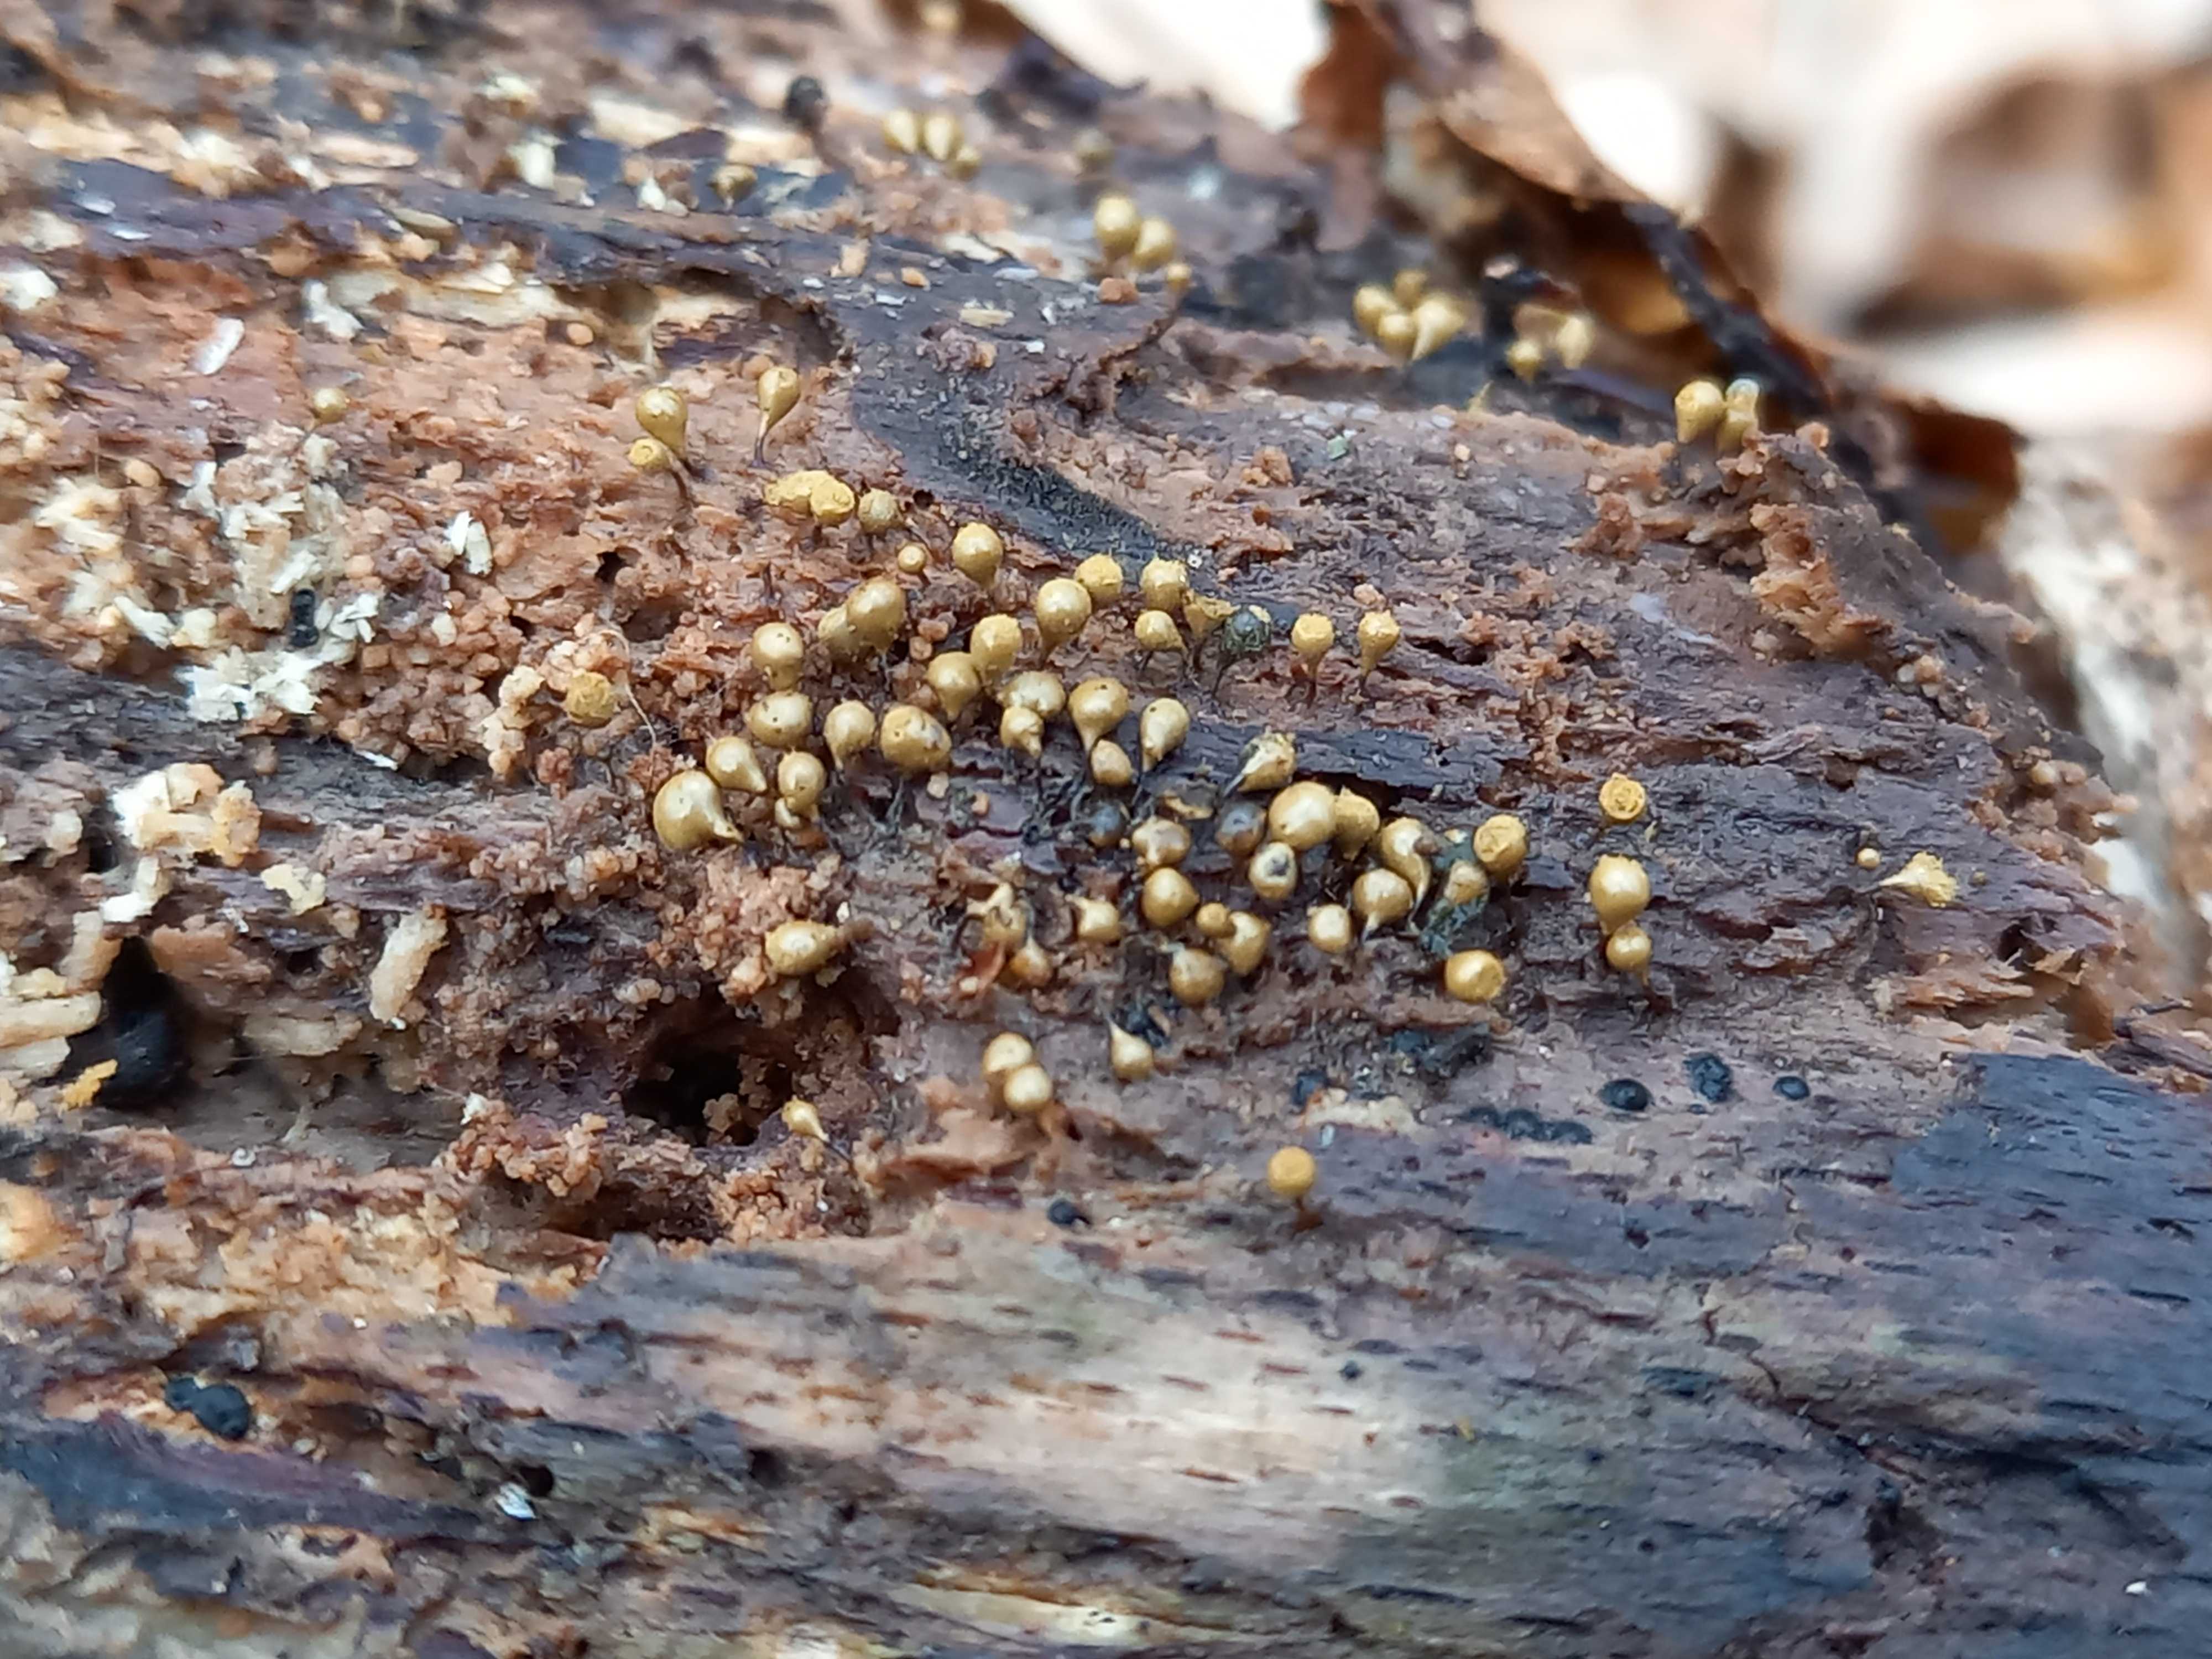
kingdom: Protozoa
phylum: Mycetozoa
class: Myxomycetes
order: Trichiales
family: Trichiaceae
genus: Trichia
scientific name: Trichia crateriformis
